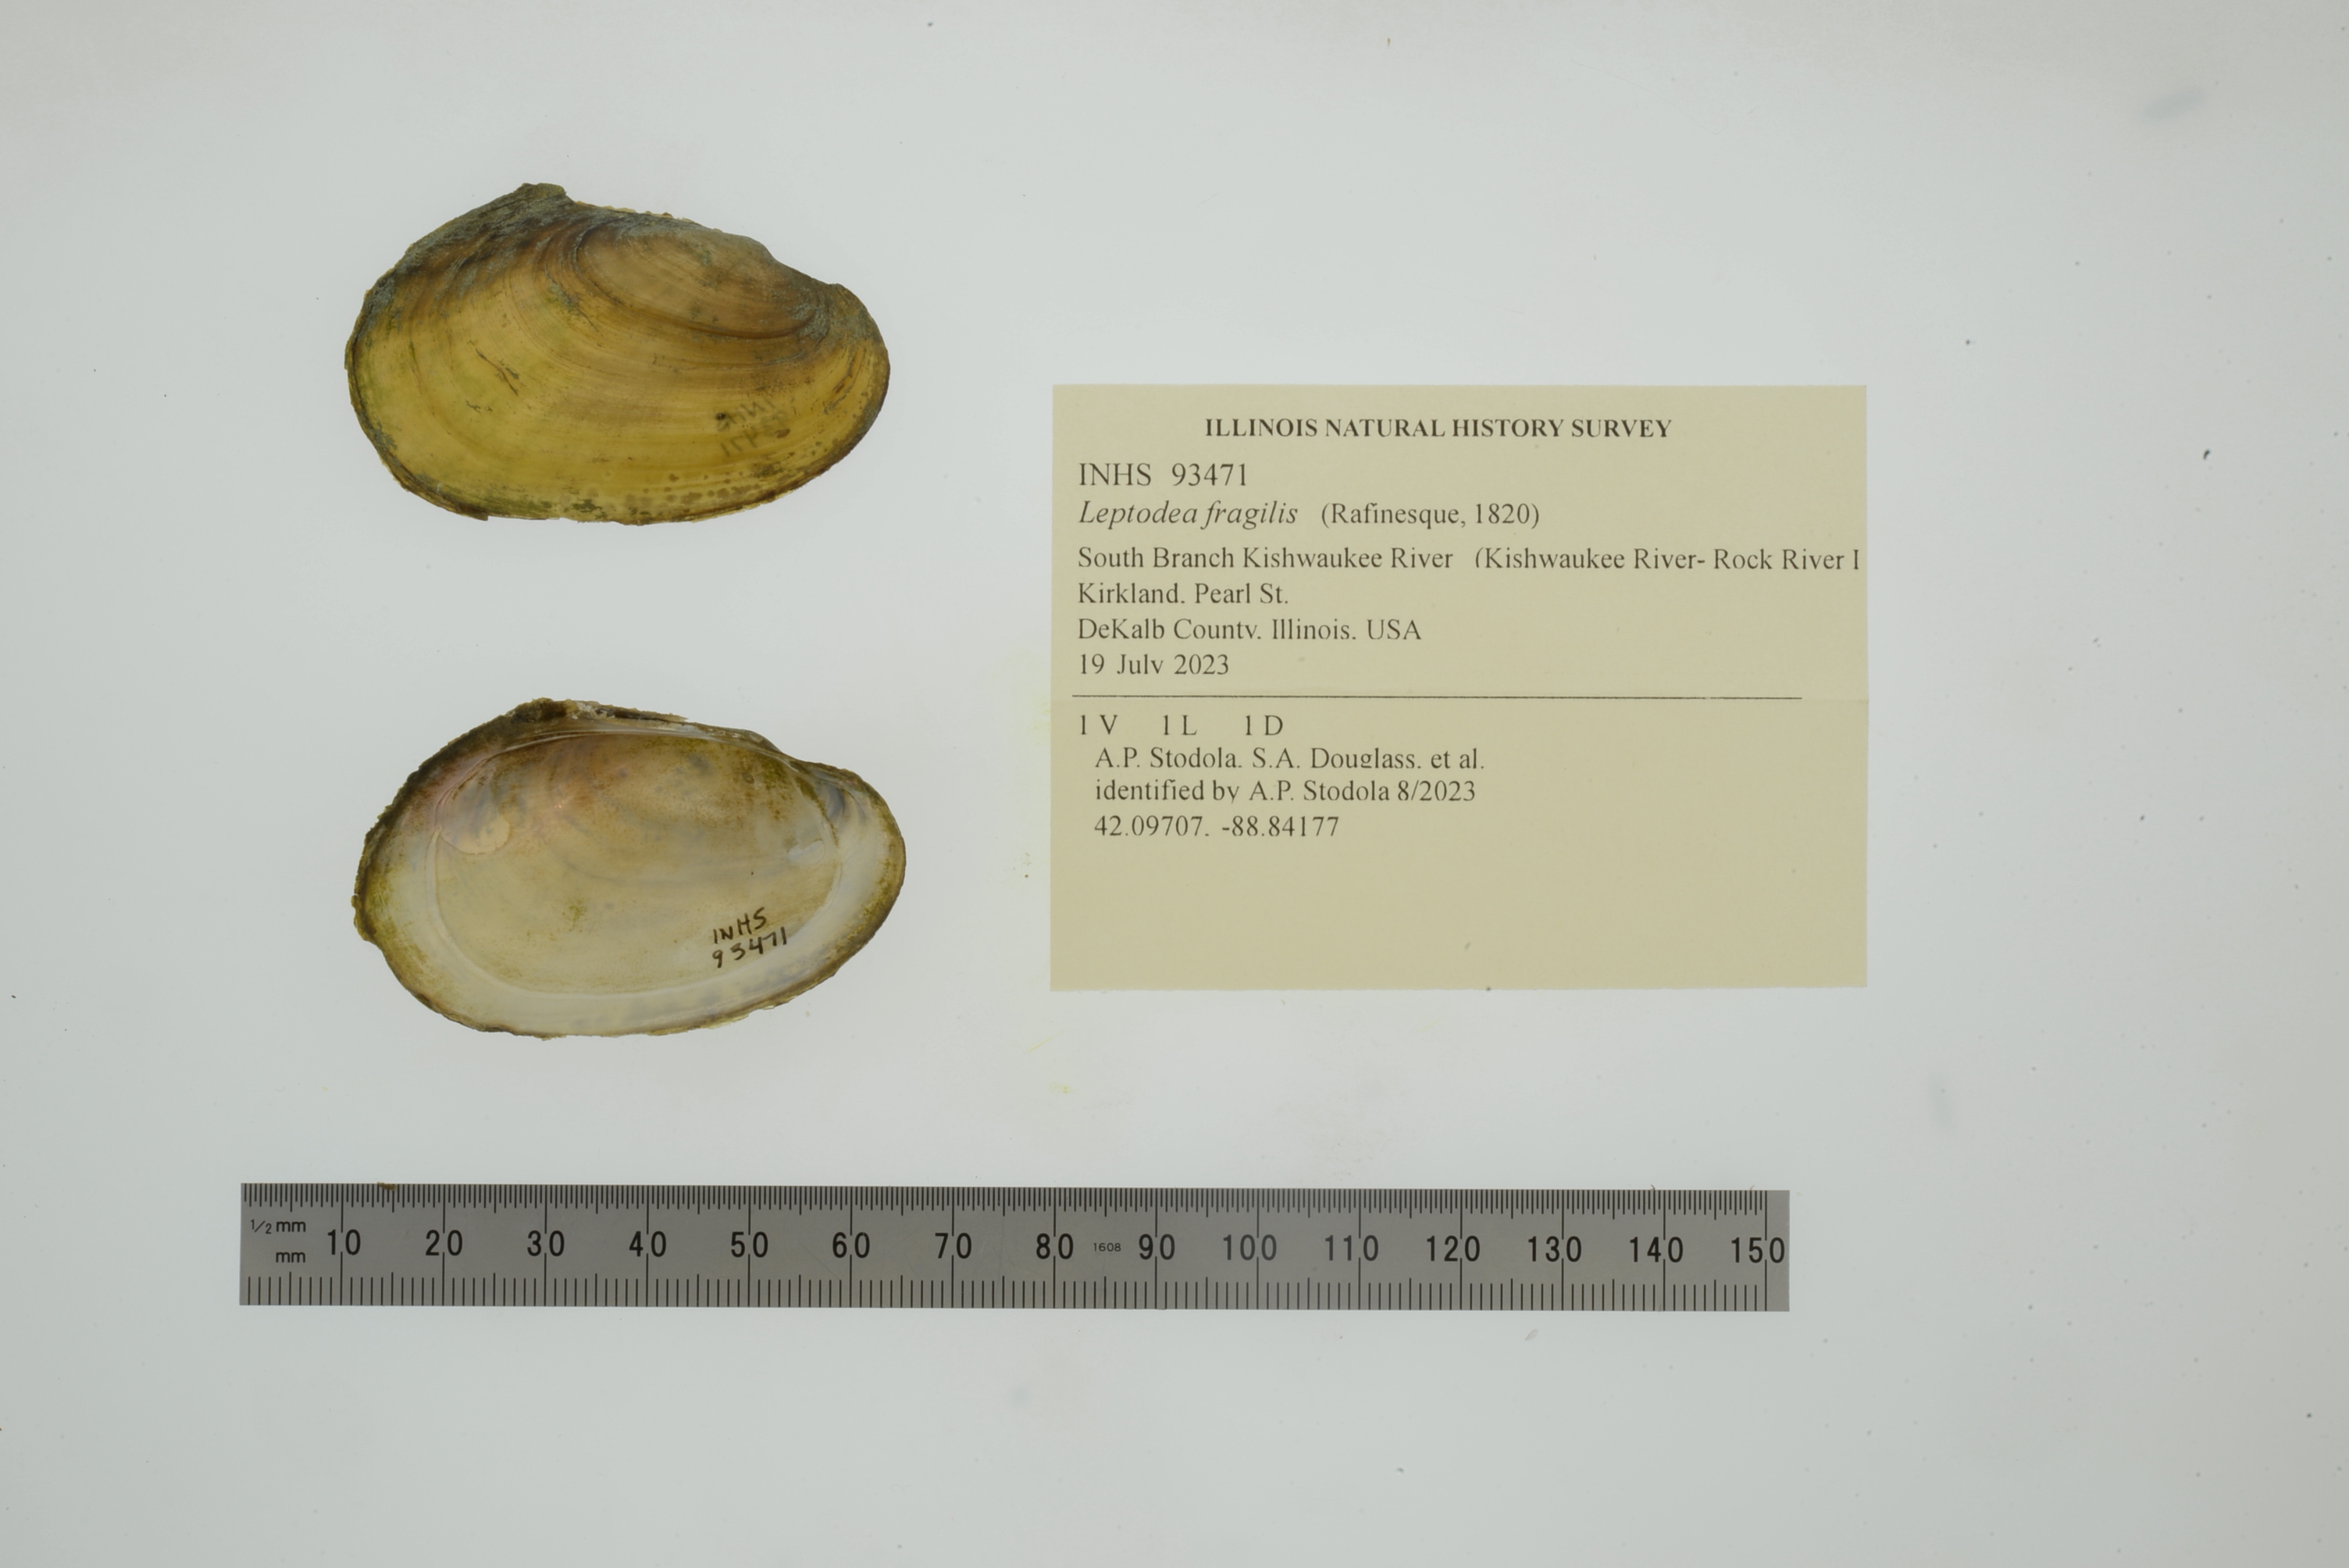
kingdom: Animalia
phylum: Mollusca
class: Bivalvia
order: Unionida
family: Unionidae
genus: Potamilus
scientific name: Potamilus fragilis
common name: Fragile papershell
